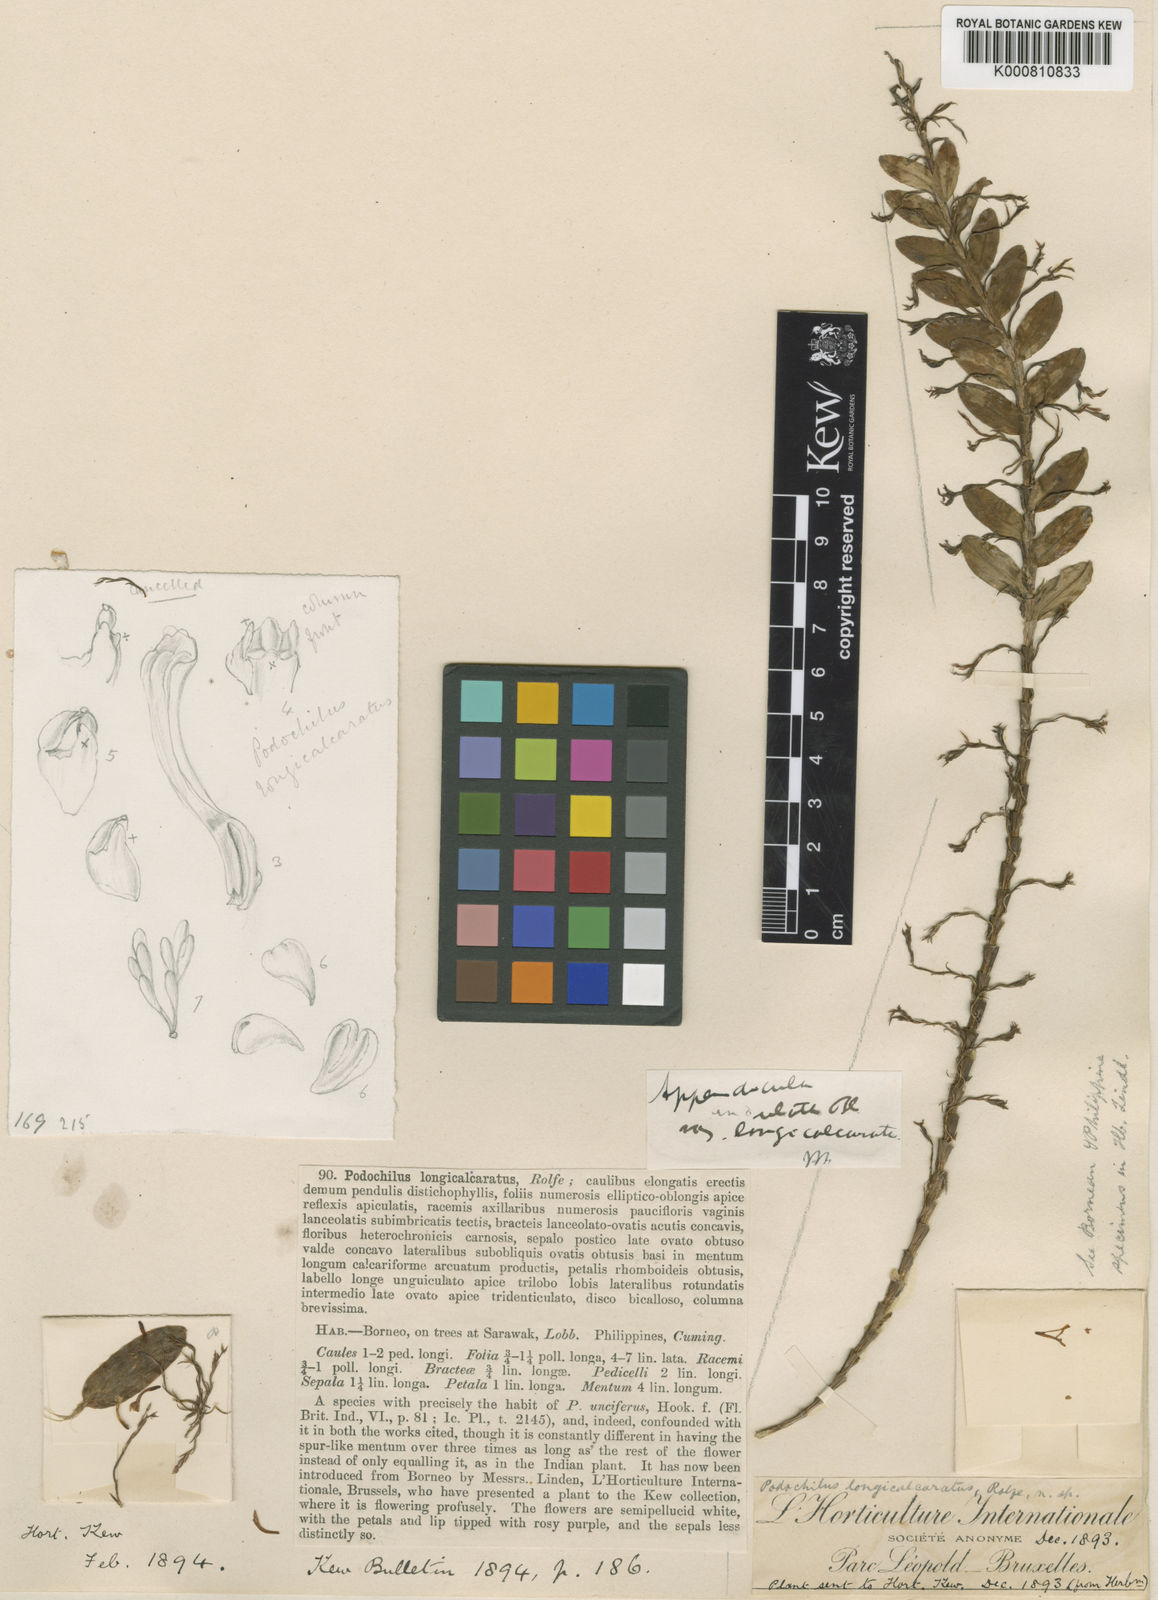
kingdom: Plantae
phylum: Tracheophyta
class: Liliopsida
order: Asparagales
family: Orchidaceae
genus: Appendicula
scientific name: Appendicula undulata
